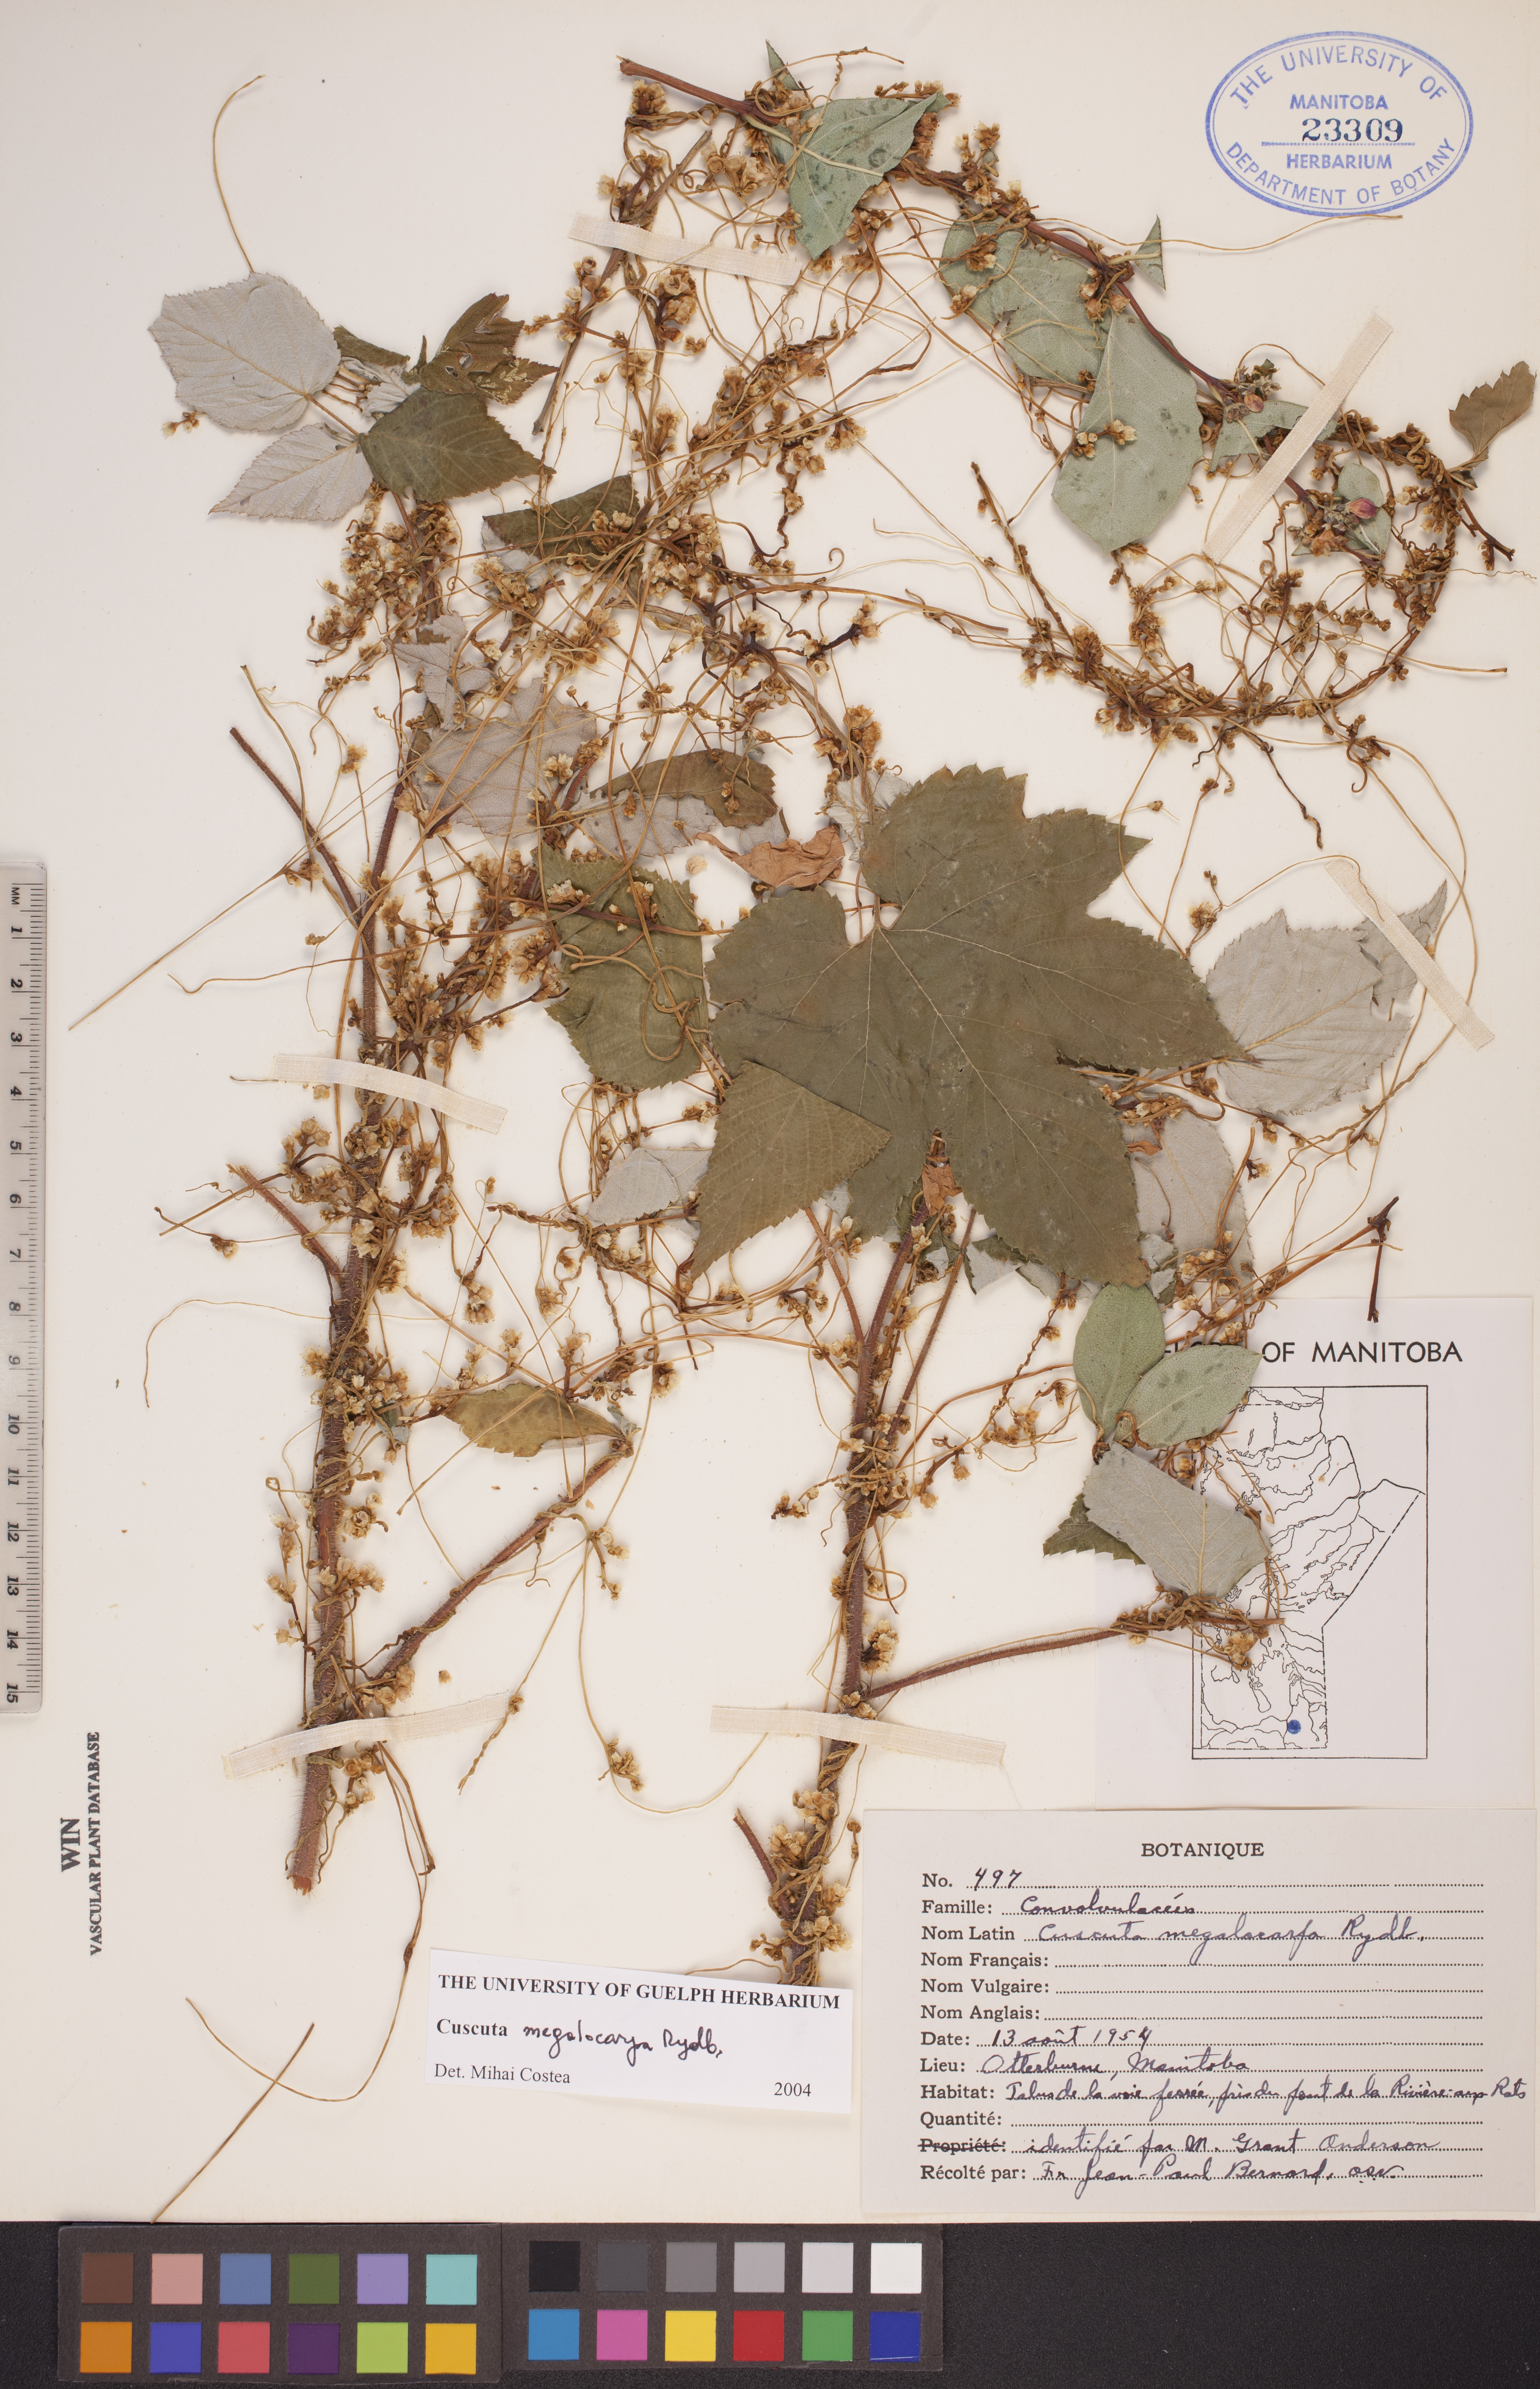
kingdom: Plantae
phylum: Tracheophyta
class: Magnoliopsida
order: Solanales
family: Convolvulaceae
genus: Cuscuta
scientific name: Cuscuta umbrosa
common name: Bigfruit dodder
